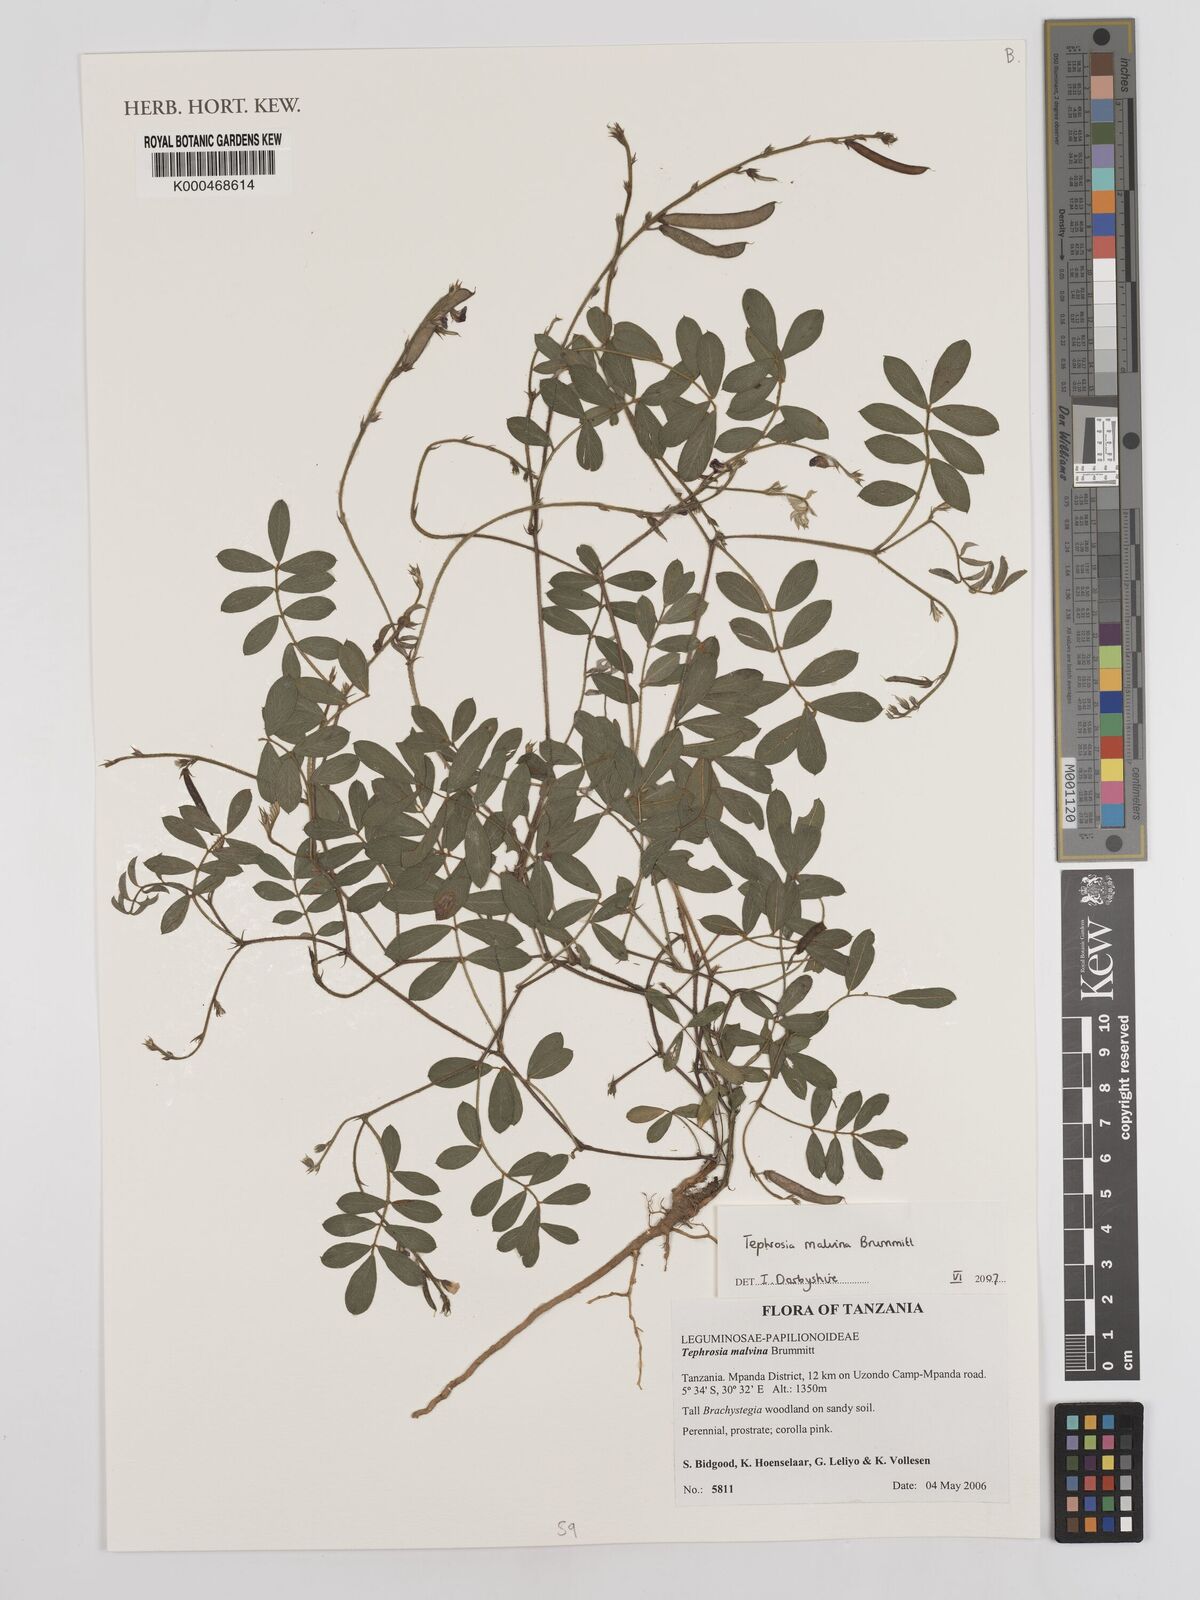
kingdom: Plantae
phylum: Tracheophyta
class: Magnoliopsida
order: Fabales
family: Fabaceae
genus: Tephrosia
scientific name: Tephrosia malvina
